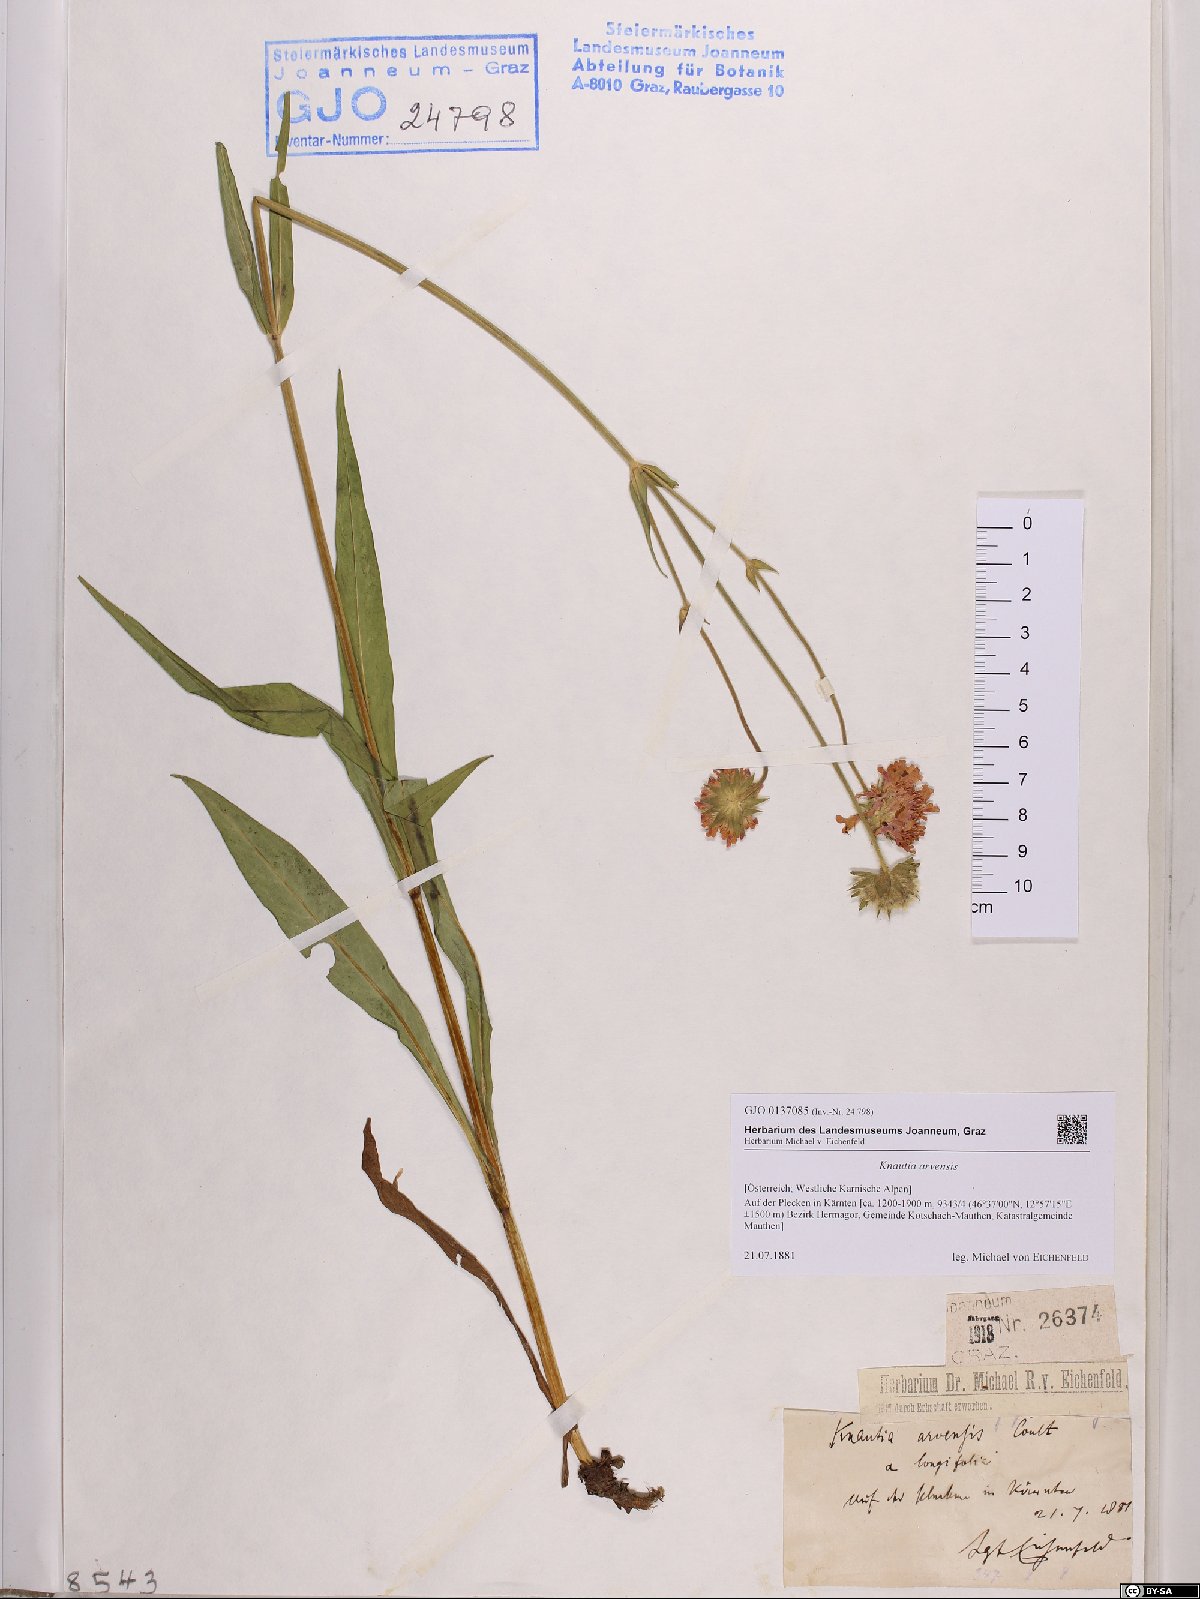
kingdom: Plantae
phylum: Tracheophyta
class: Magnoliopsida
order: Dipsacales
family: Caprifoliaceae
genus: Knautia
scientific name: Knautia arvensis
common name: Field scabiosa
